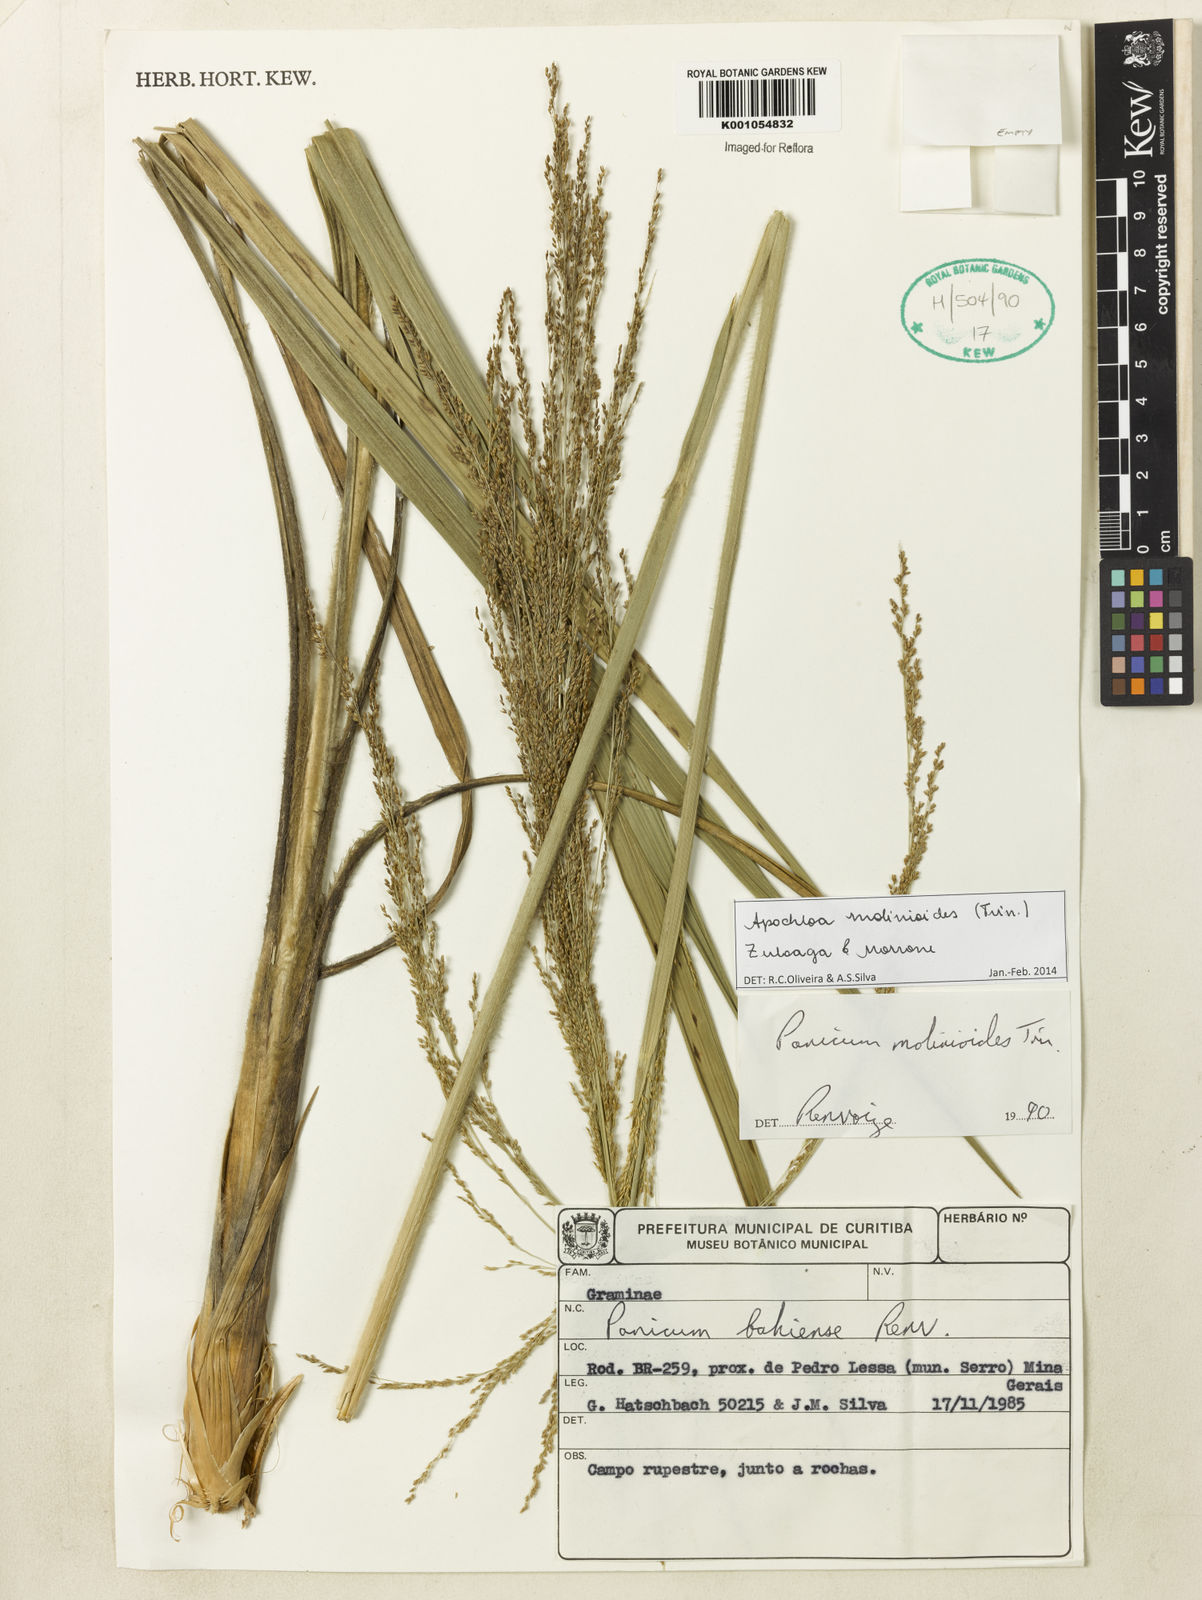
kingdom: Plantae
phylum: Tracheophyta
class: Liliopsida
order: Poales
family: Poaceae
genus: Apochloa
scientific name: Apochloa molinioides
